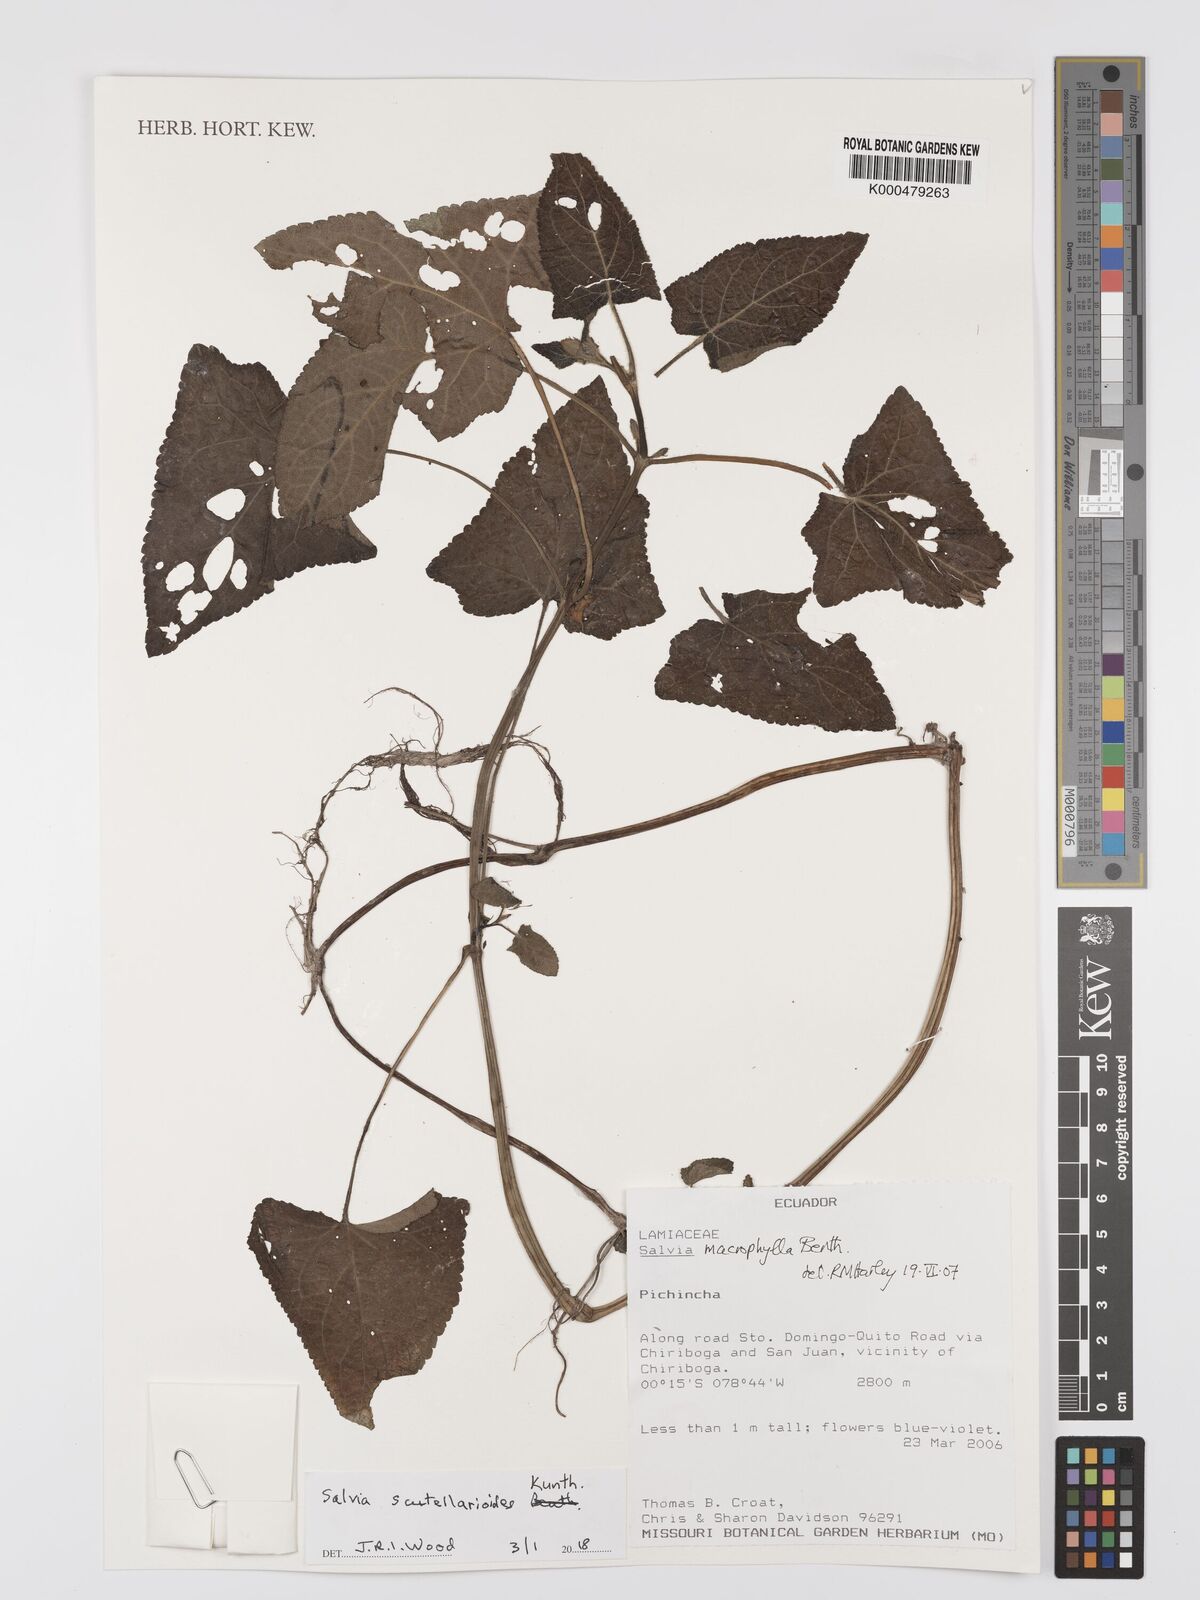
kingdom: Plantae
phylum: Tracheophyta
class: Magnoliopsida
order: Lamiales
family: Lamiaceae
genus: Salvia
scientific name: Salvia scutellarioides
